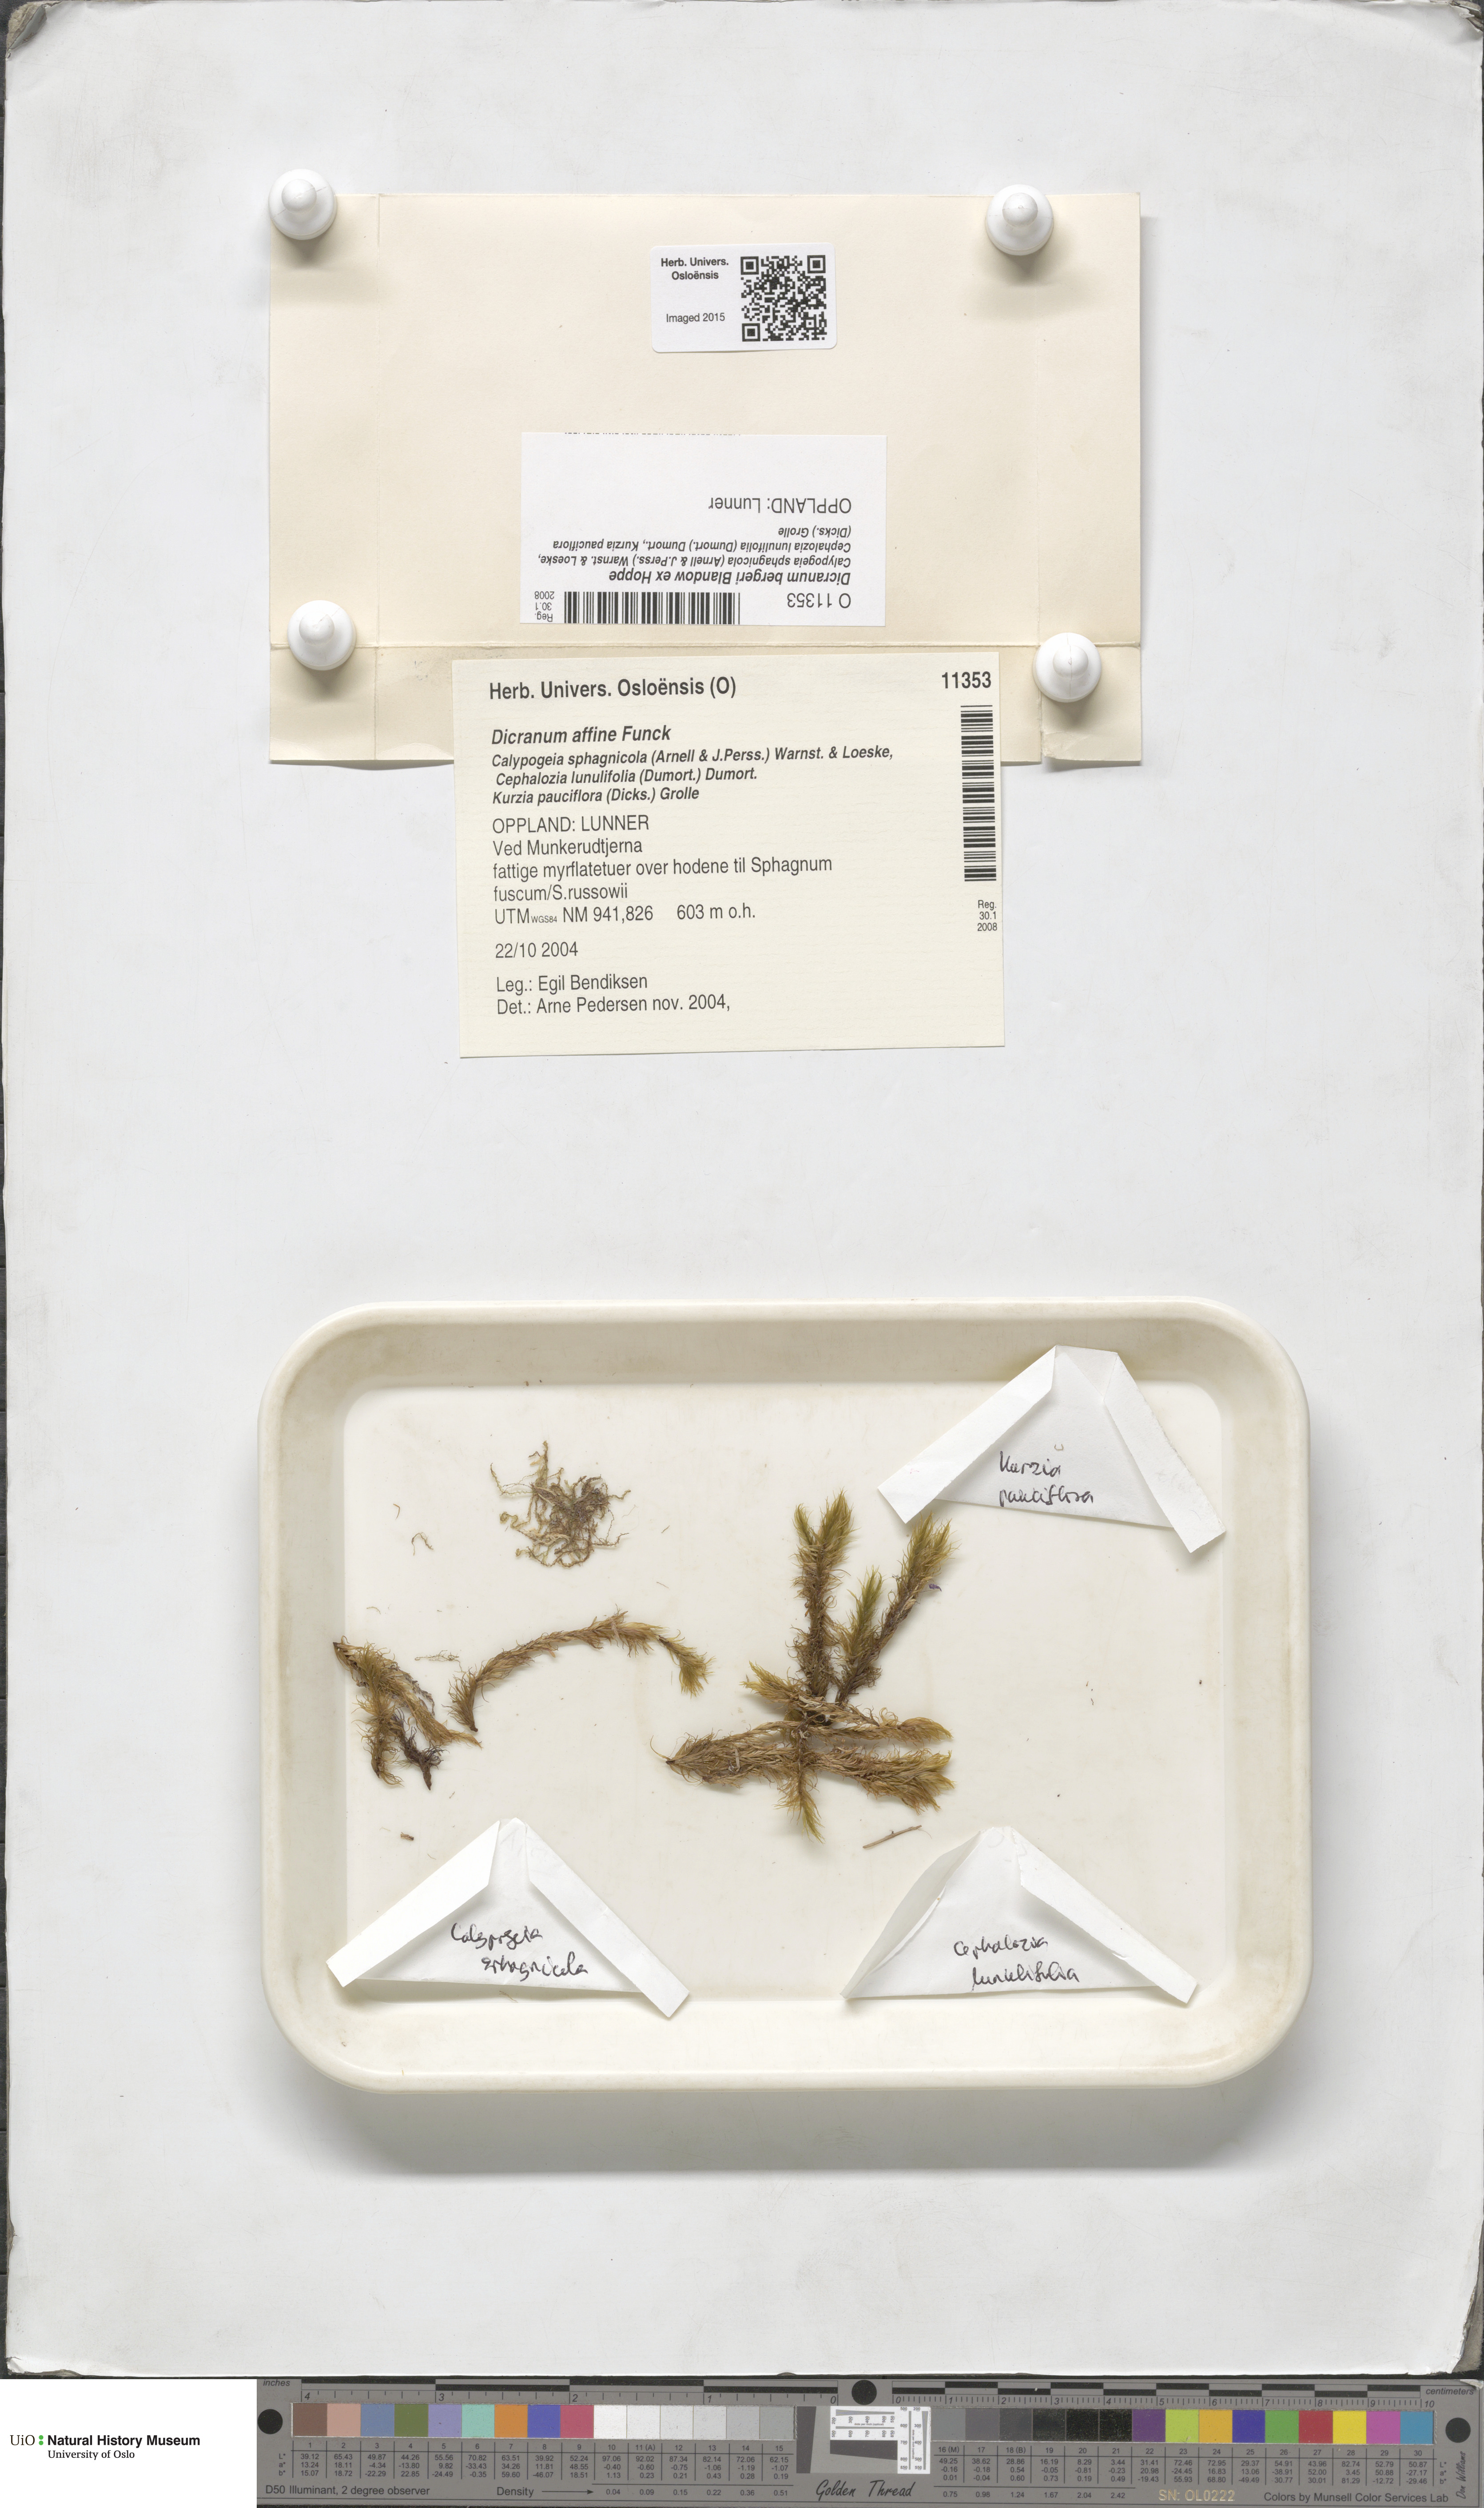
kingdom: Plantae
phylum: Bryophyta
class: Bryopsida
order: Dicranales
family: Dicranaceae
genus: Dicranum
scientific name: Dicranum undulatum
